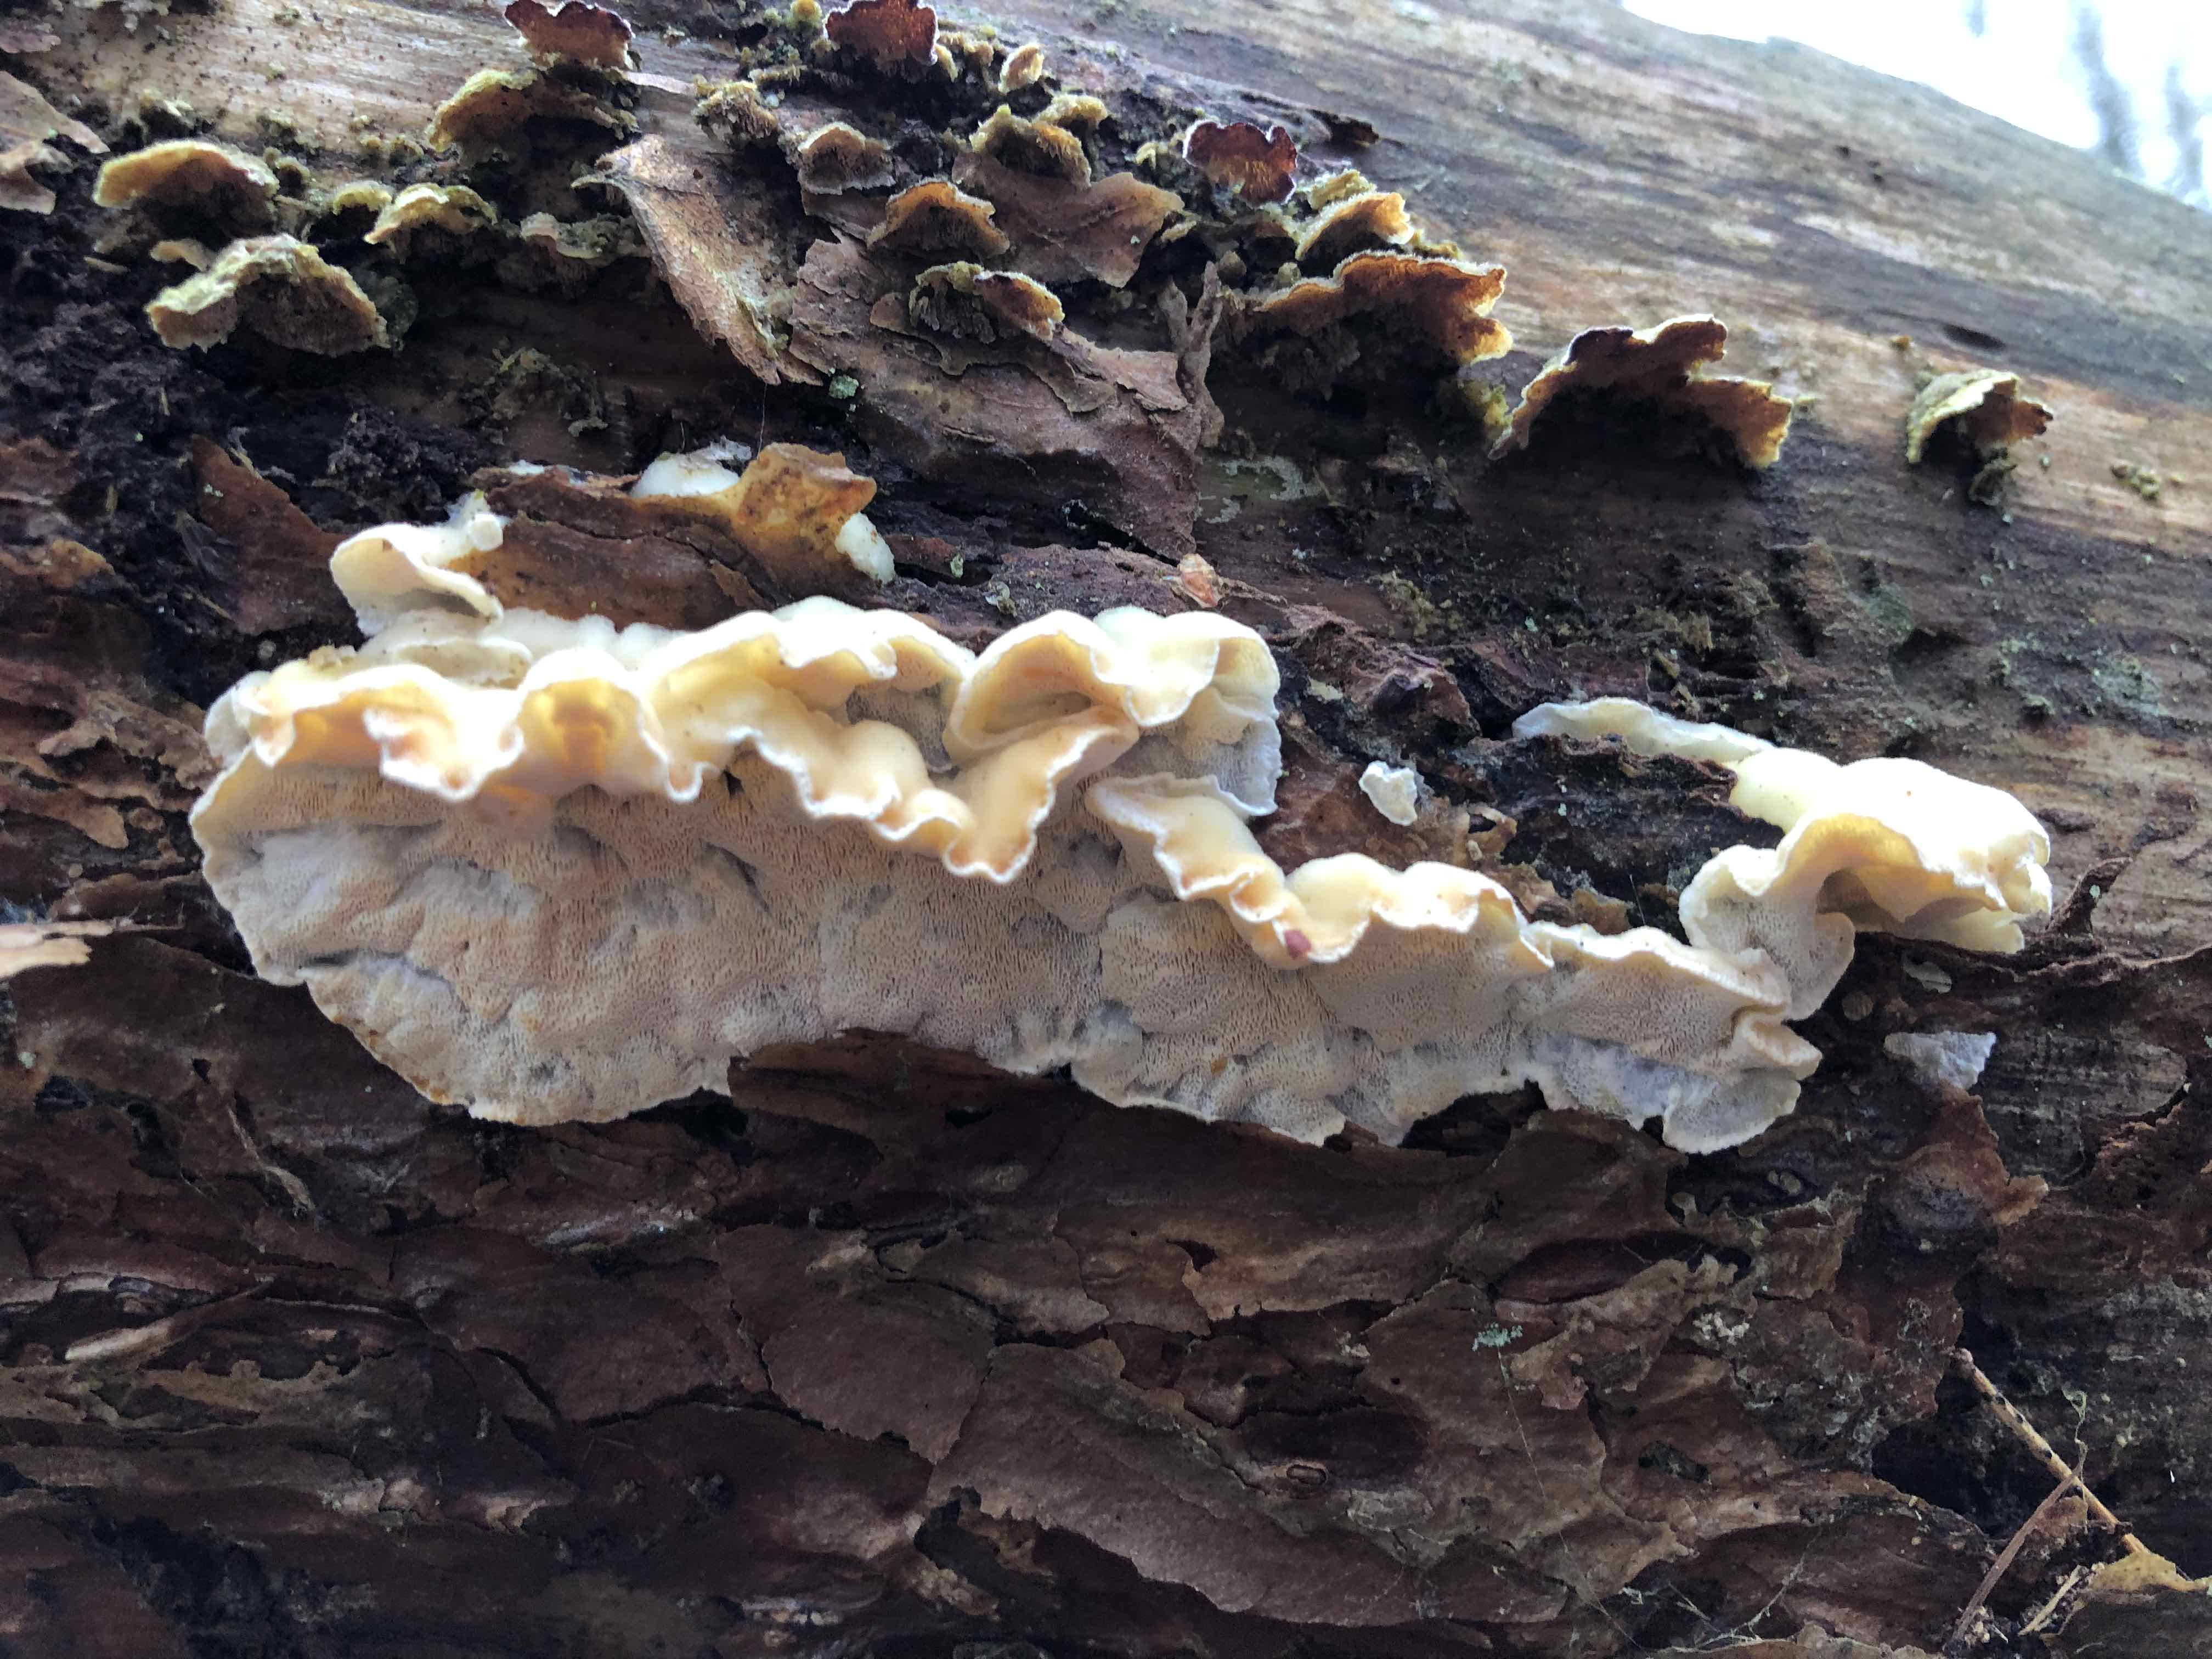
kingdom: Fungi
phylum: Basidiomycota
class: Agaricomycetes
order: Polyporales
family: Incrustoporiaceae
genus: Skeletocutis
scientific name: Skeletocutis amorpha
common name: orange krystalporesvamp
